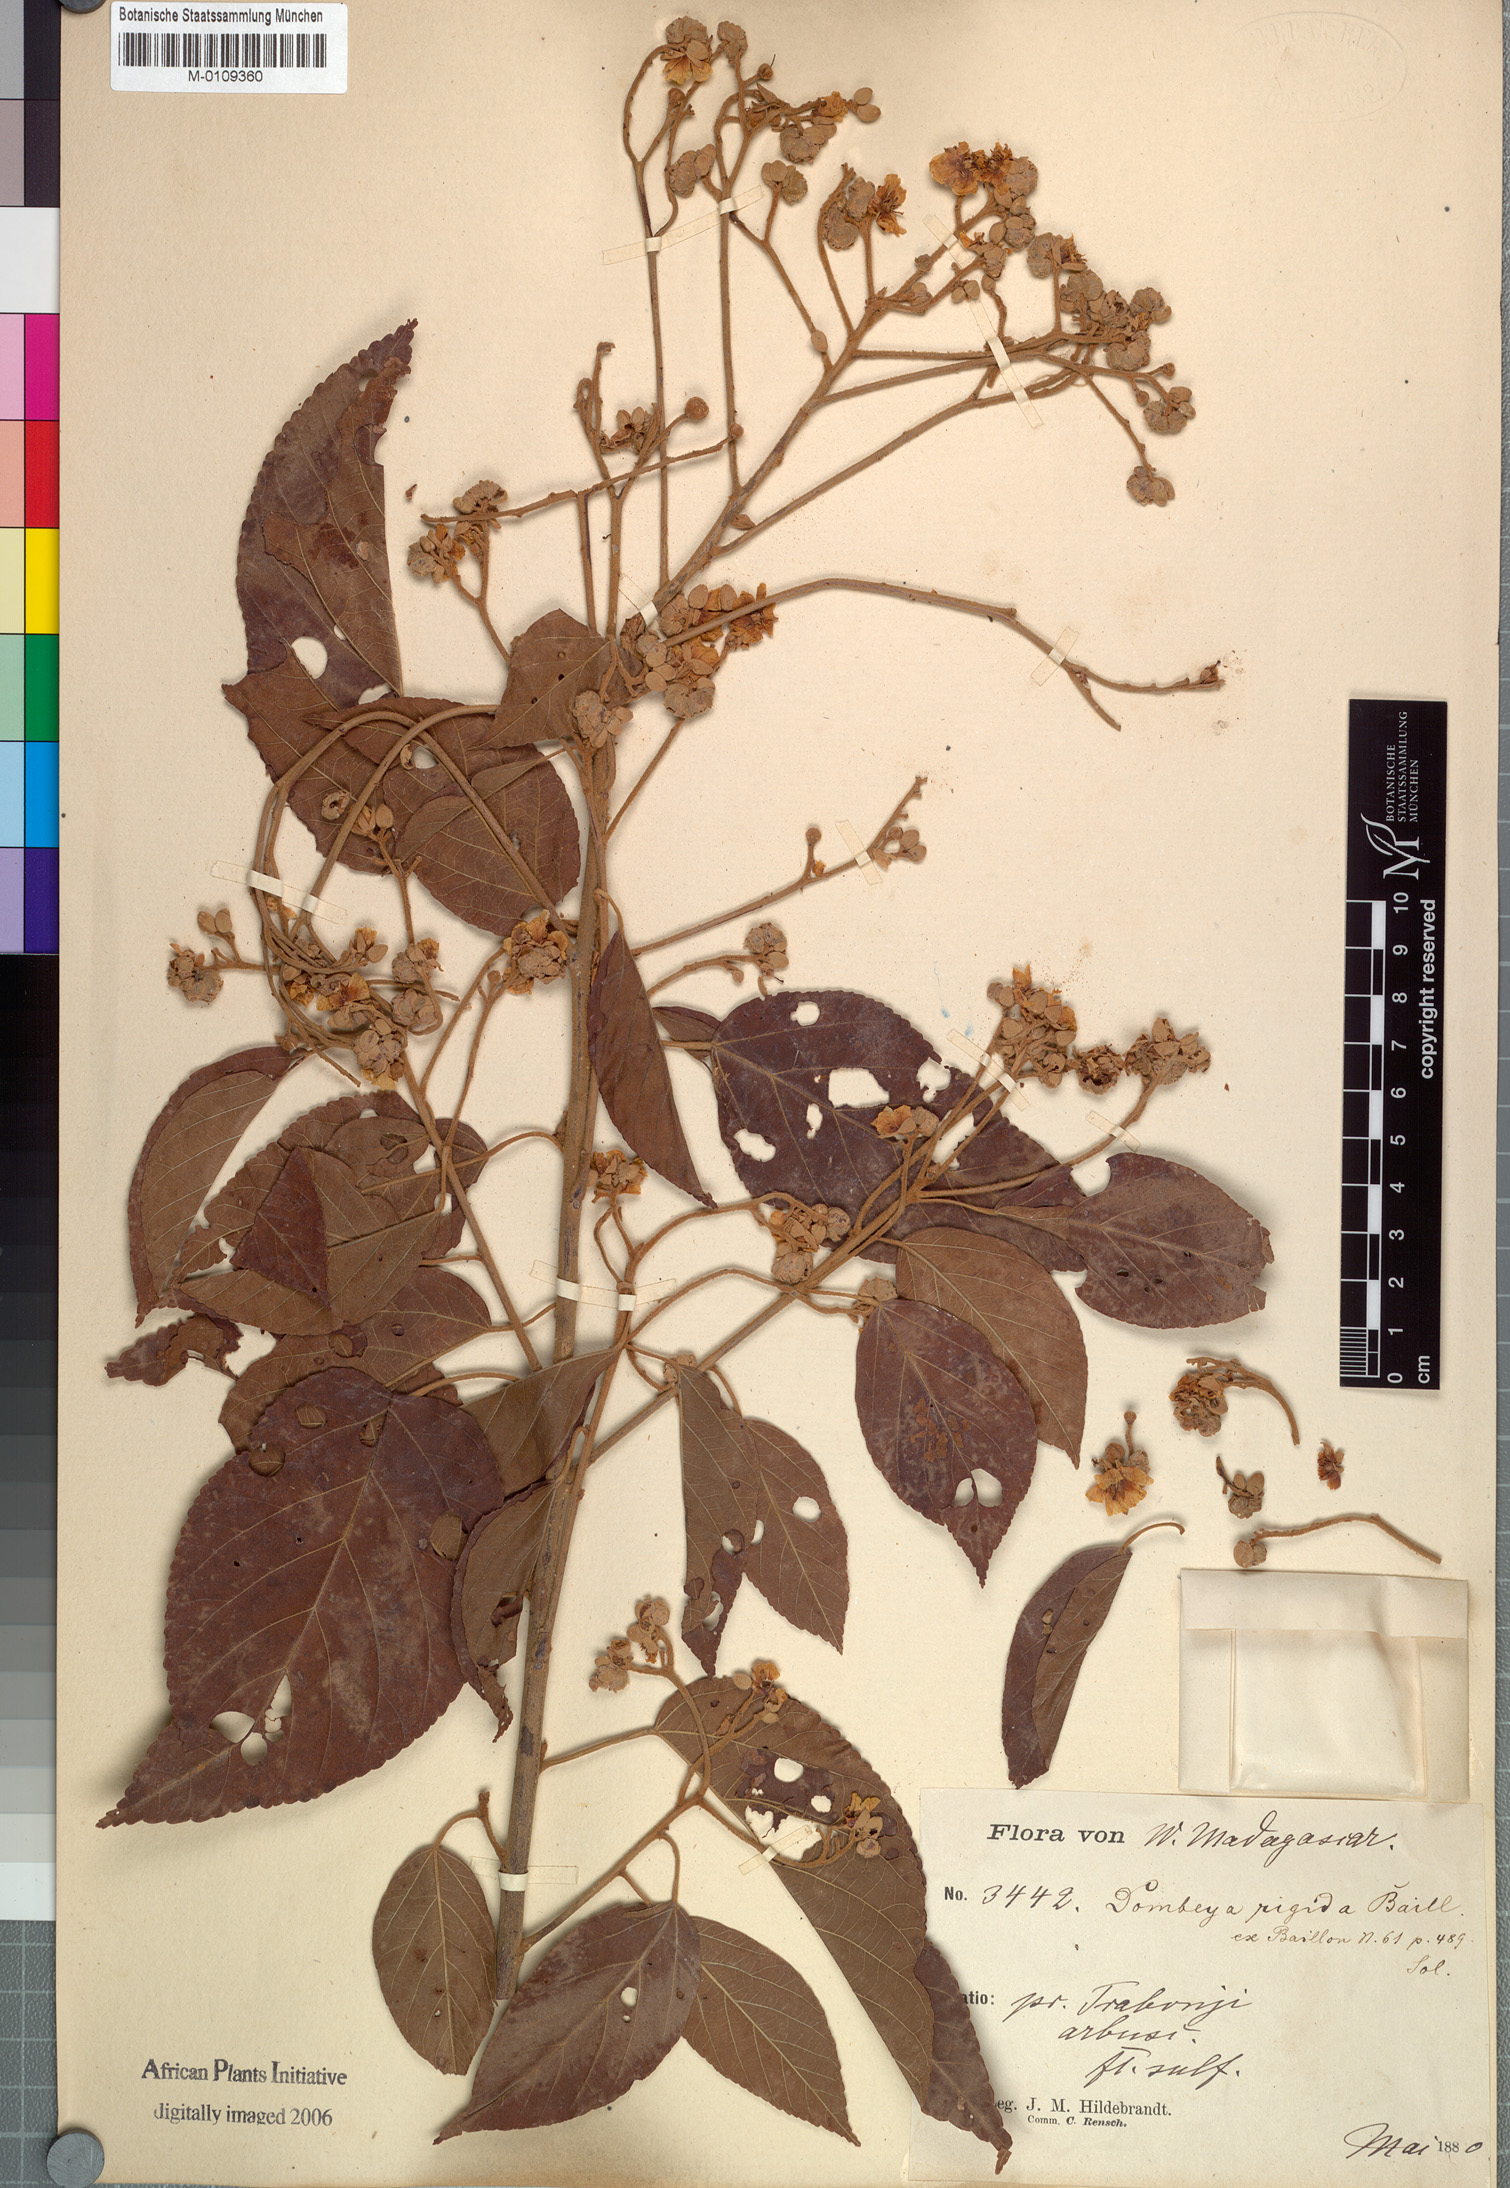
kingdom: Plantae
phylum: Tracheophyta
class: Magnoliopsida
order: Malvales
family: Malvaceae
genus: Eriolaena
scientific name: Eriolaena rigida
